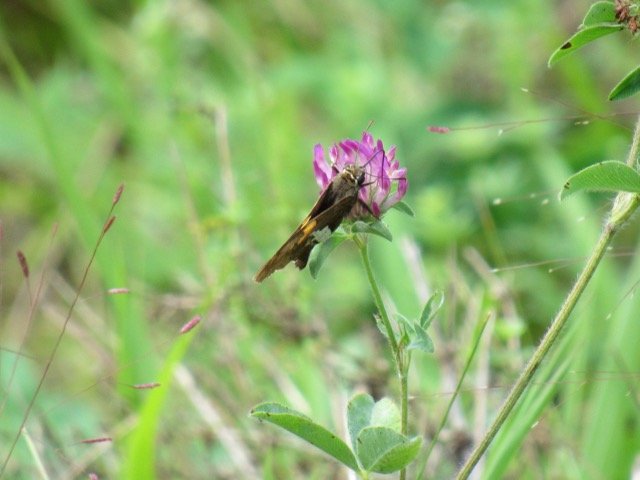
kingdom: Animalia
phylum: Arthropoda
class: Insecta
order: Lepidoptera
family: Hesperiidae
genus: Epargyreus
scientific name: Epargyreus clarus
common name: Silver-spotted Skipper
